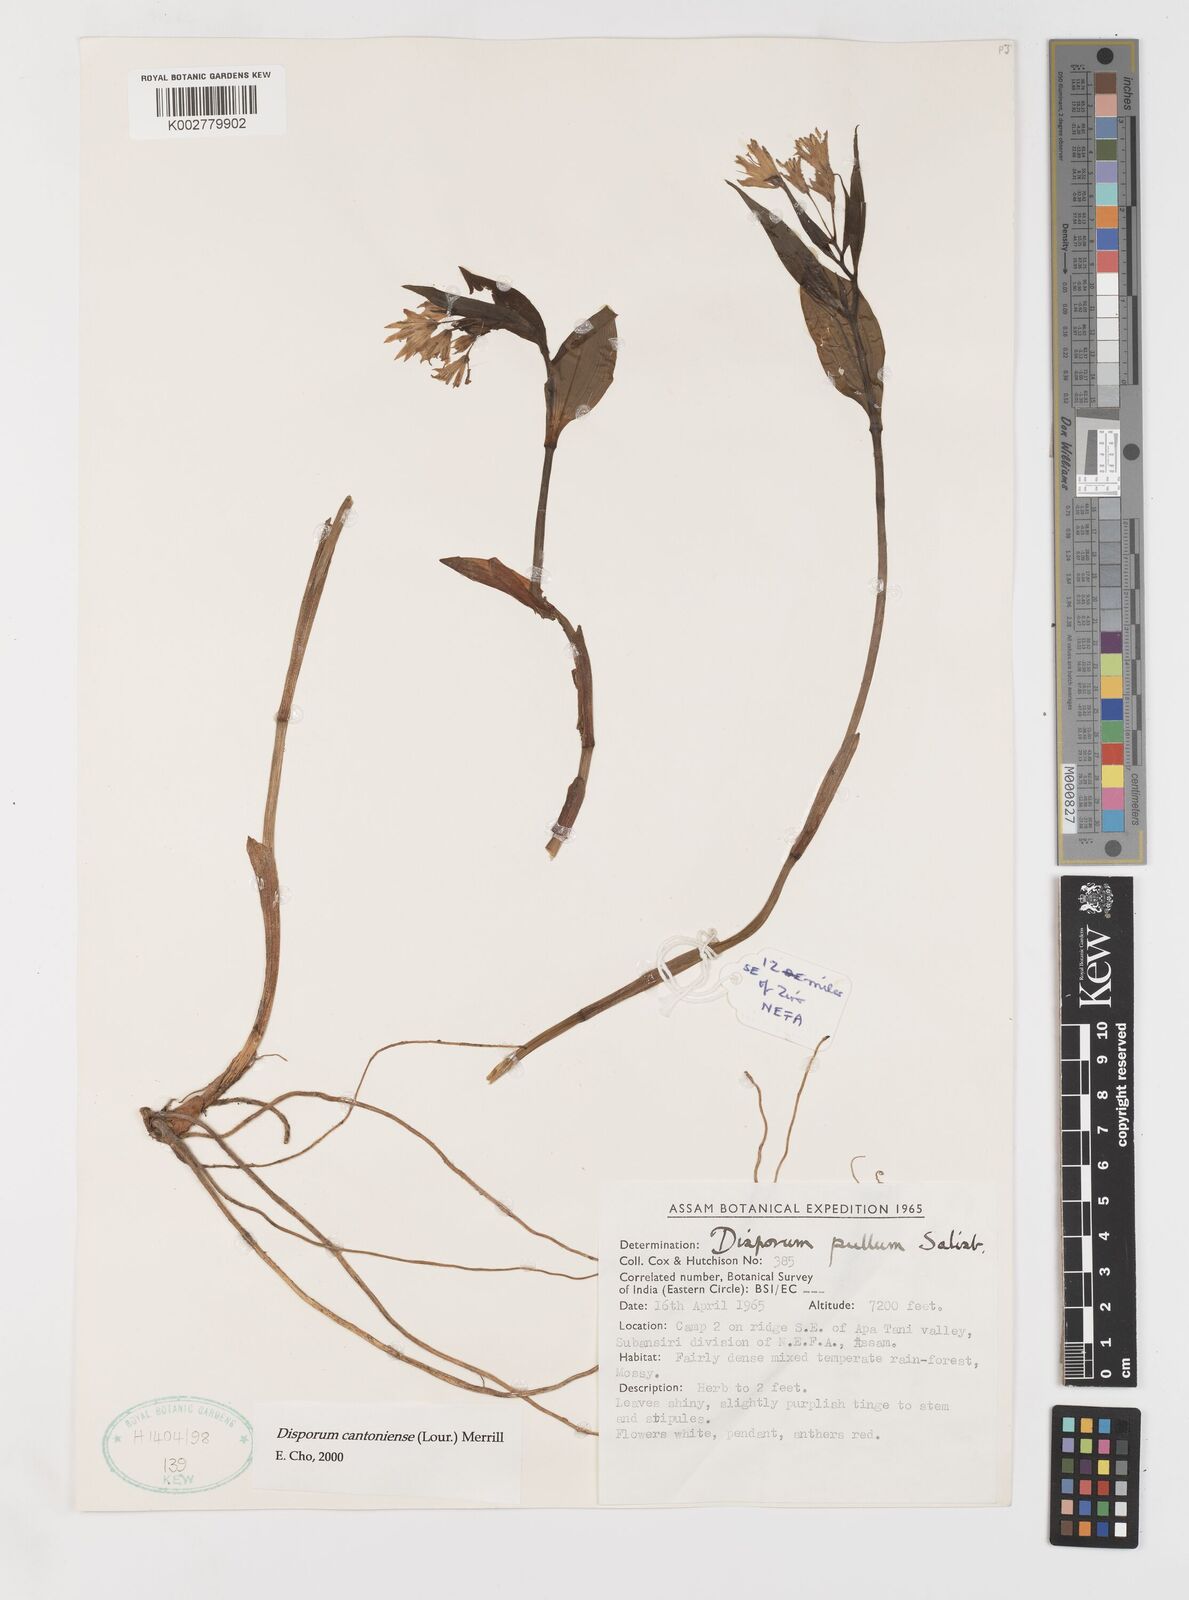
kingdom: Plantae
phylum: Tracheophyta
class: Liliopsida
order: Liliales
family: Colchicaceae
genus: Disporum
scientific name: Disporum cantoniense
